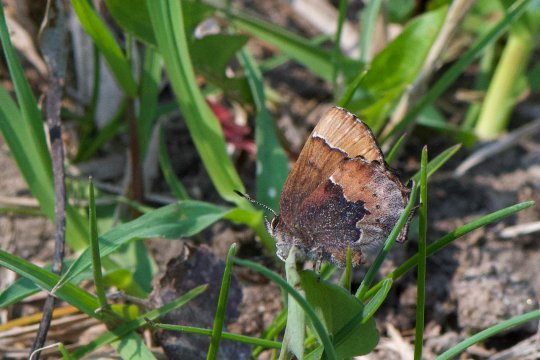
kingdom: Animalia
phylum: Arthropoda
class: Insecta
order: Lepidoptera
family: Lycaenidae
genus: Incisalia
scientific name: Incisalia henrici
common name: Henry's Elfin
